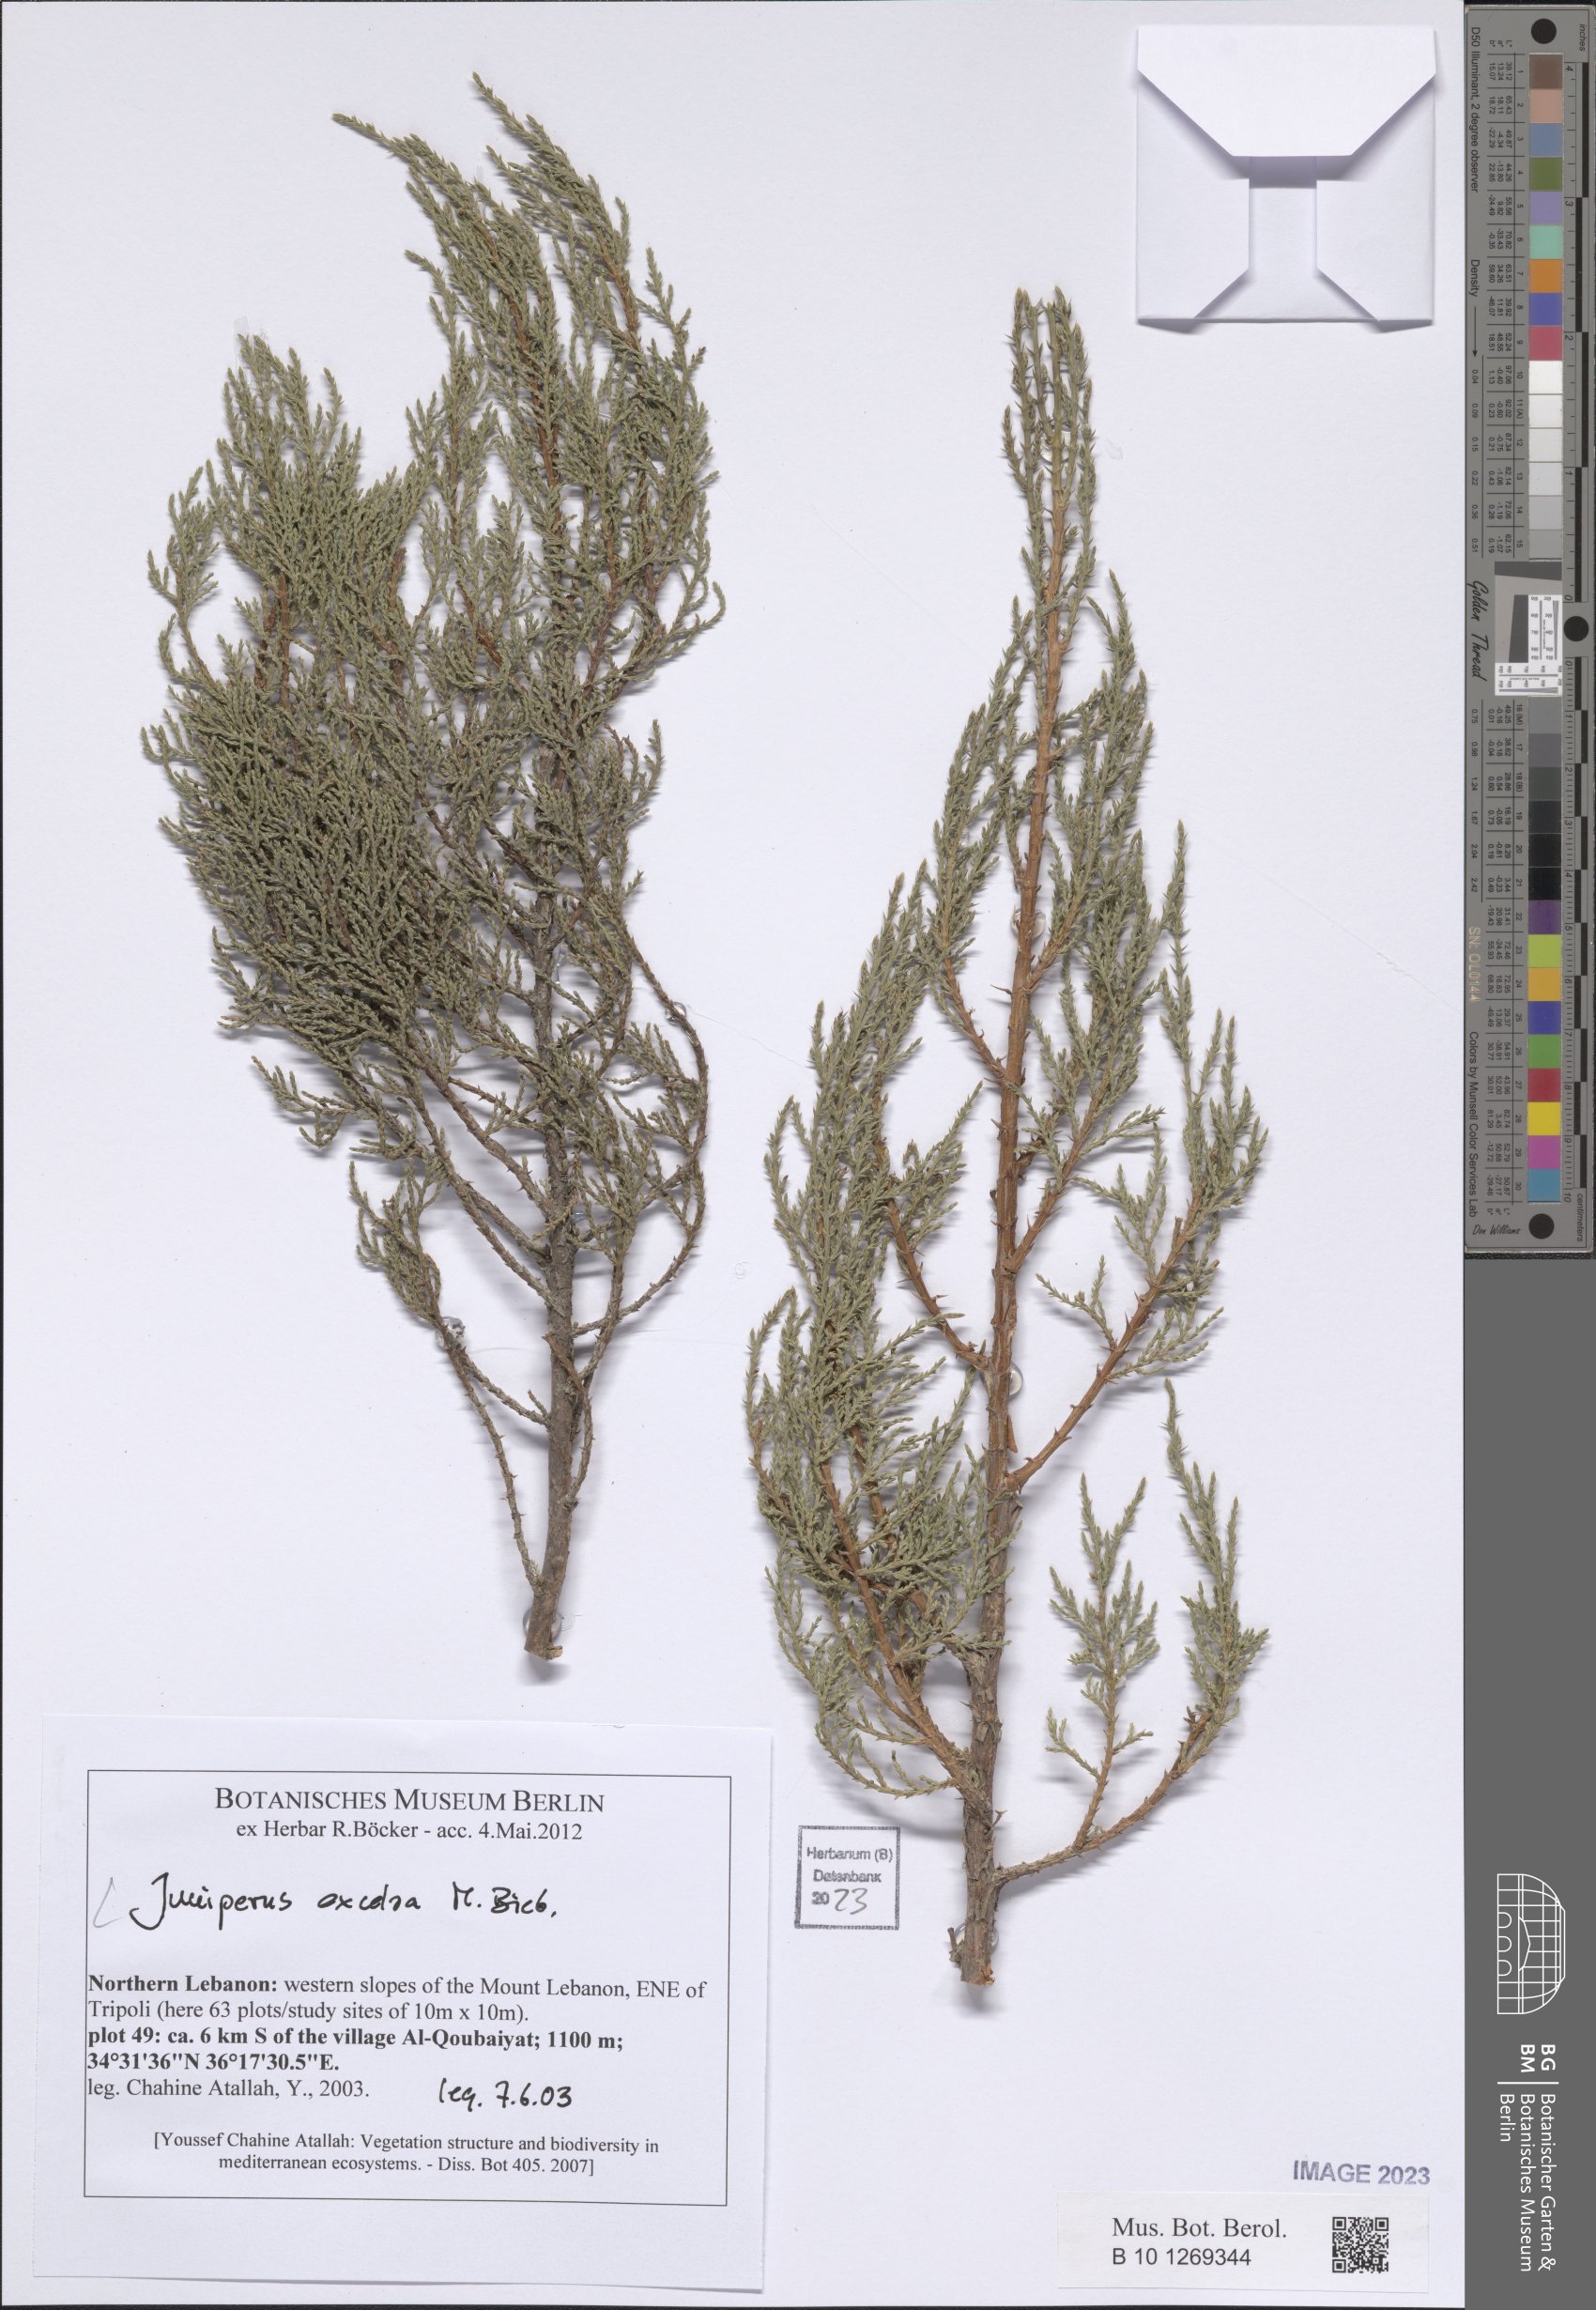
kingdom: Plantae
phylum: Tracheophyta
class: Pinopsida
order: Pinales
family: Cupressaceae
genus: Juniperus
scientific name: Juniperus excelsa
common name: Crimean juniper
